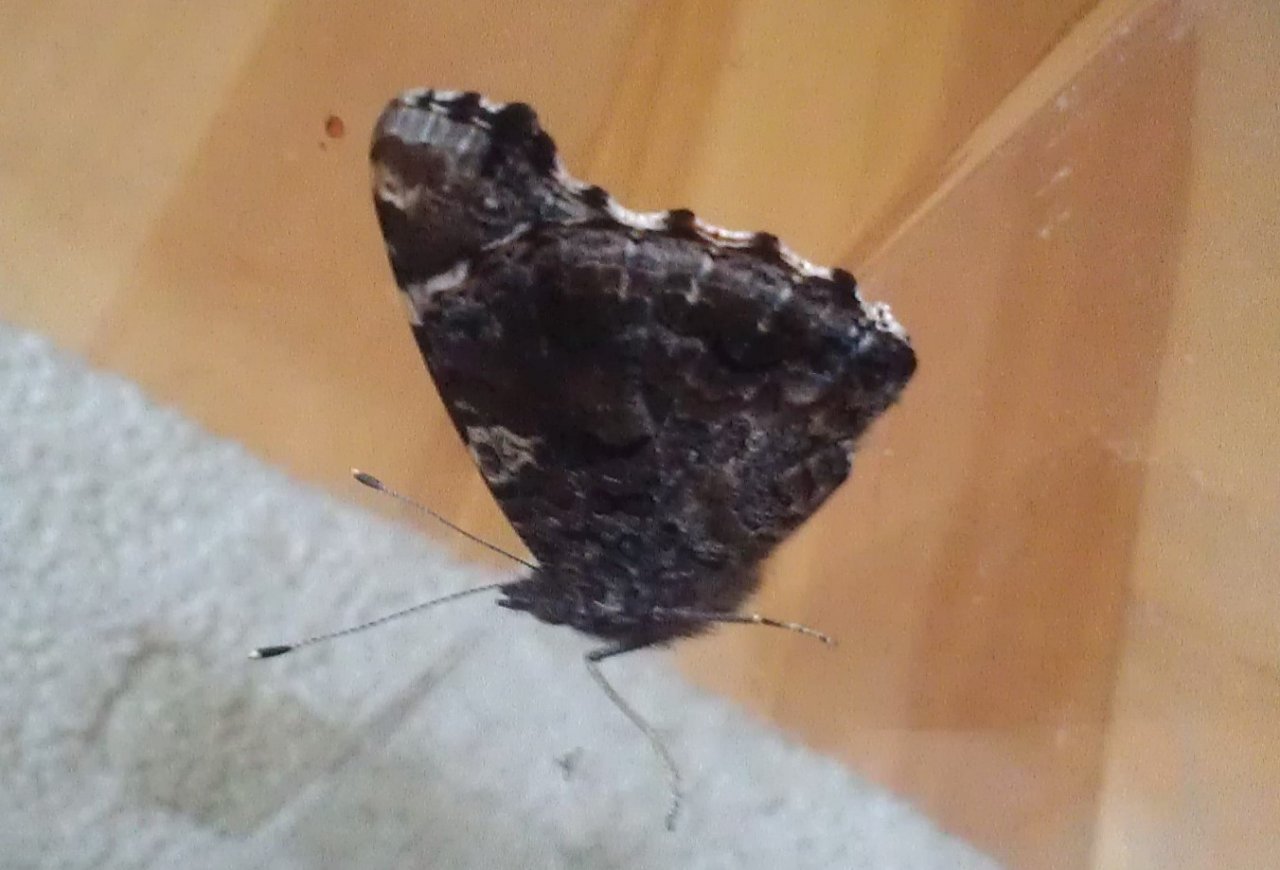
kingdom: Animalia
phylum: Arthropoda
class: Insecta
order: Lepidoptera
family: Nymphalidae
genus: Vanessa
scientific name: Vanessa atalanta
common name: Red Admiral
